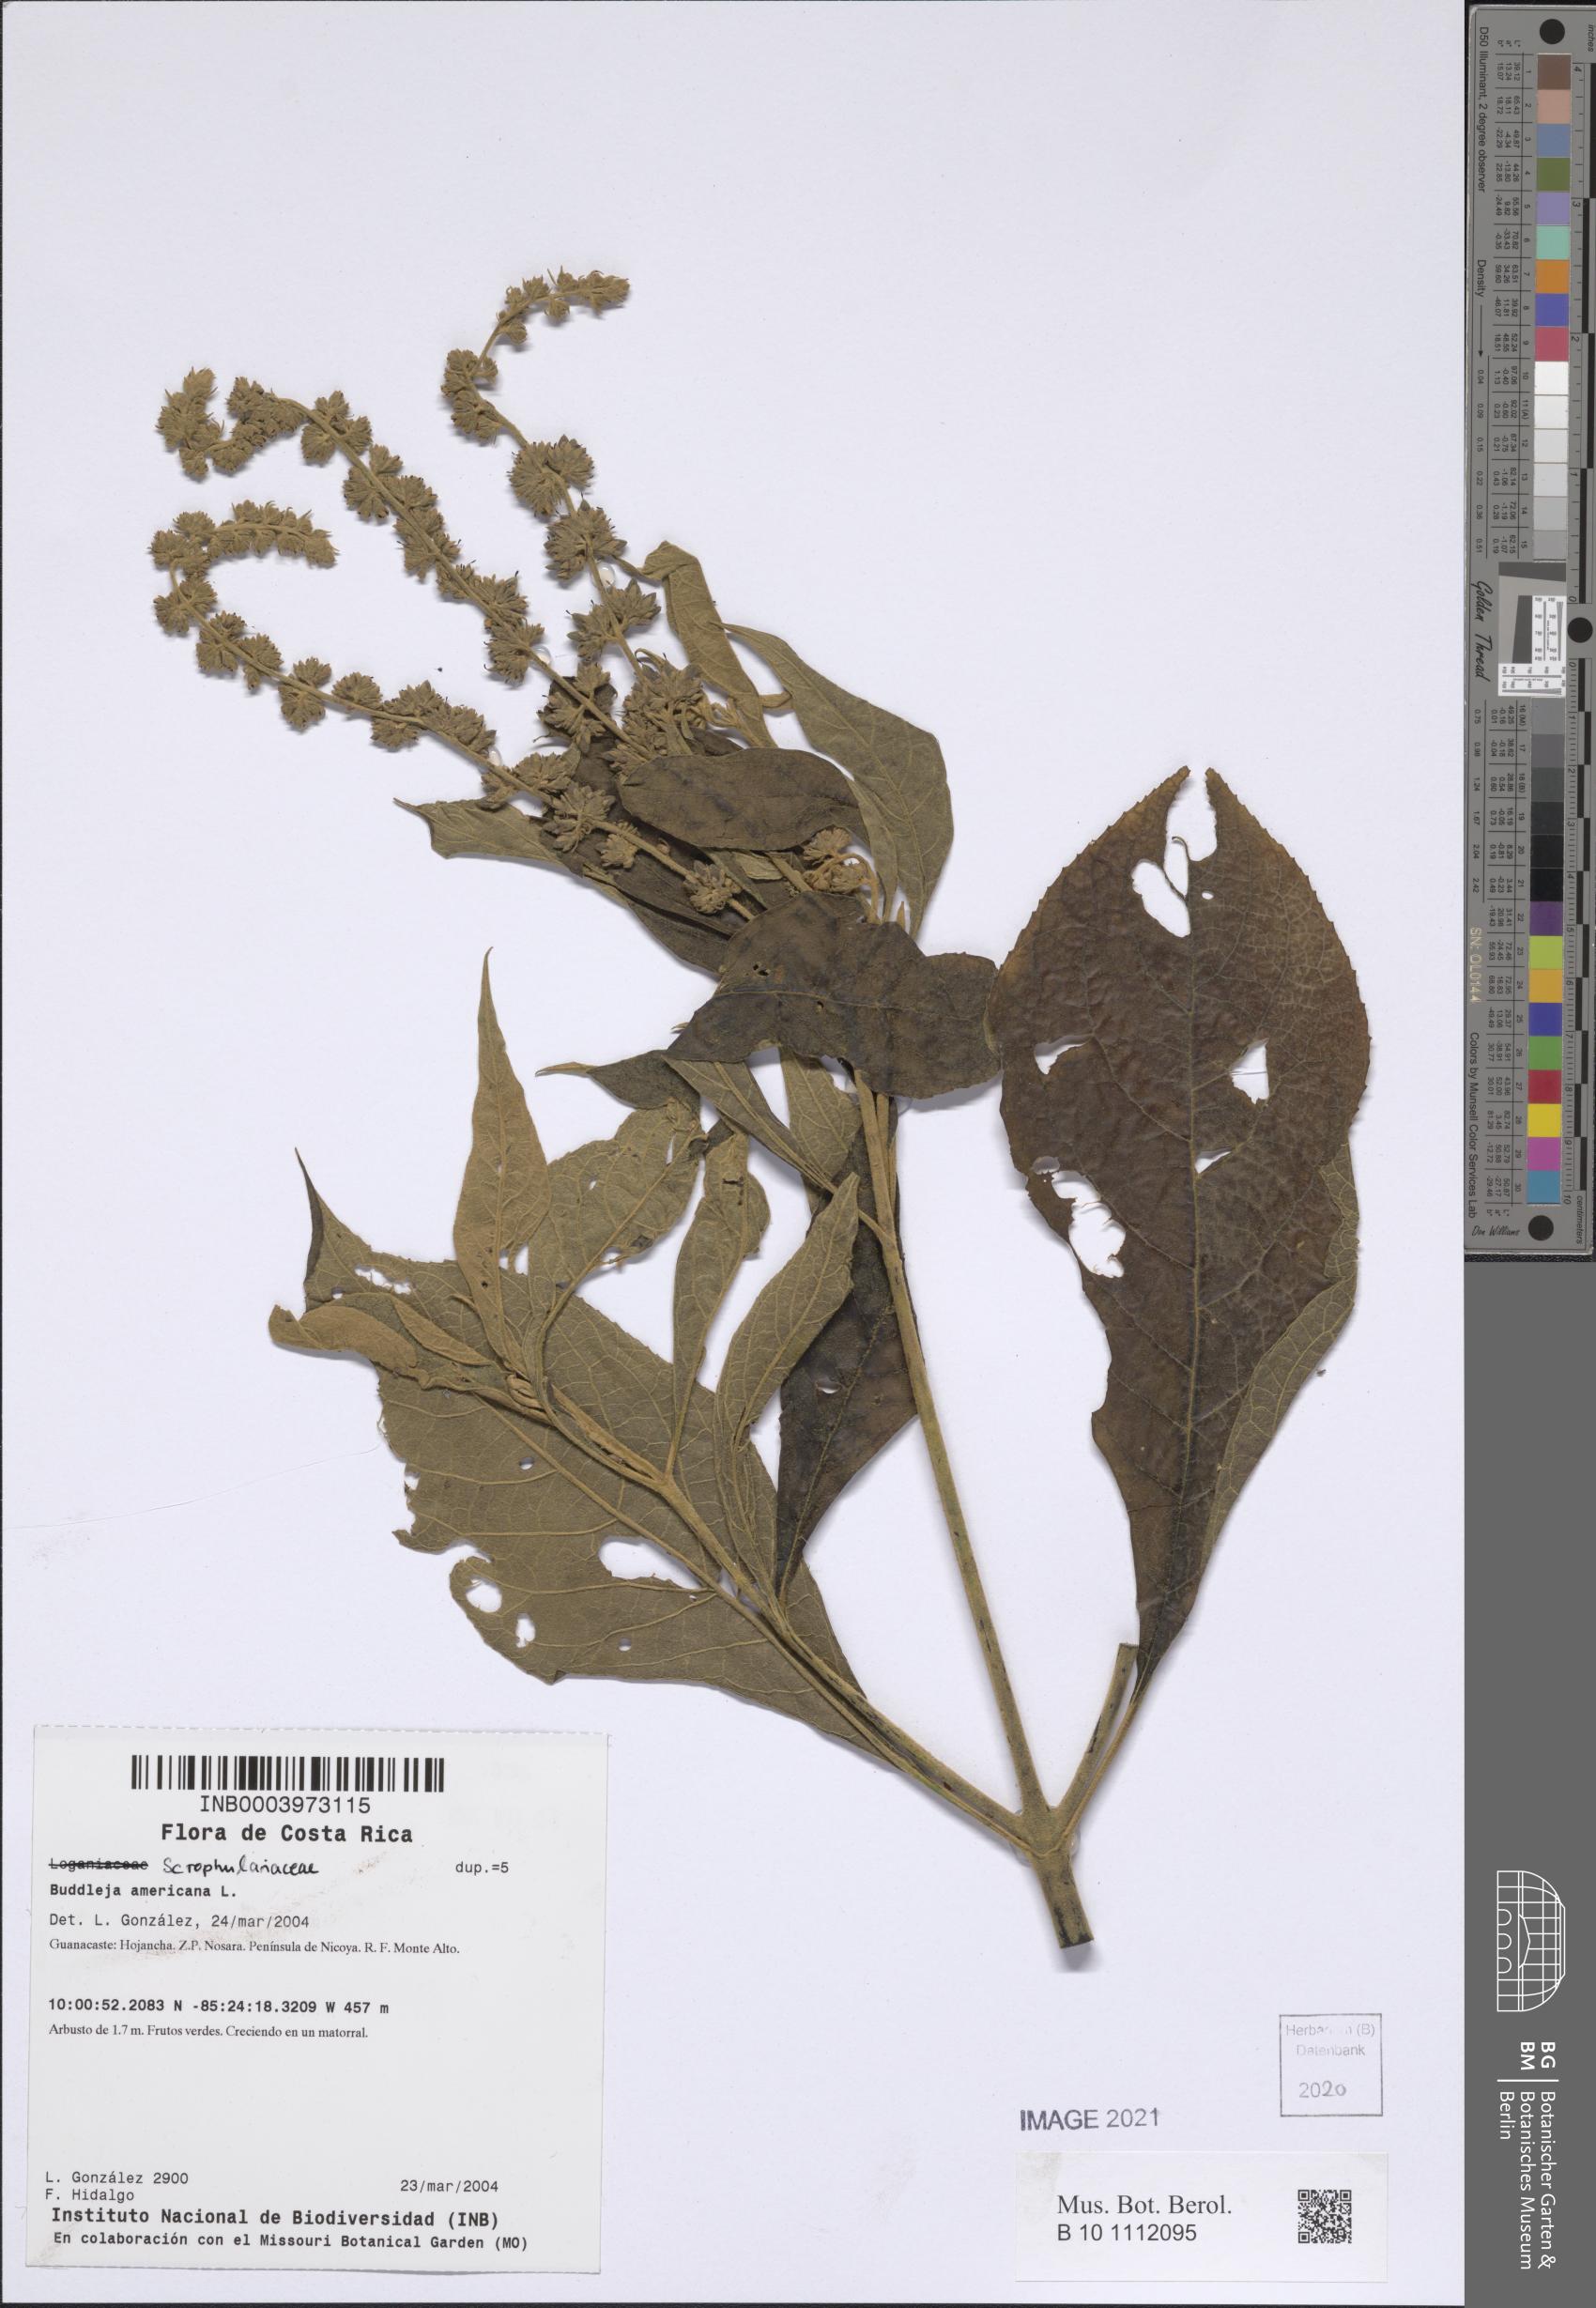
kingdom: Plantae
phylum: Tracheophyta
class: Magnoliopsida
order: Lamiales
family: Scrophulariaceae
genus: Buddleja
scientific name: Buddleja americana
